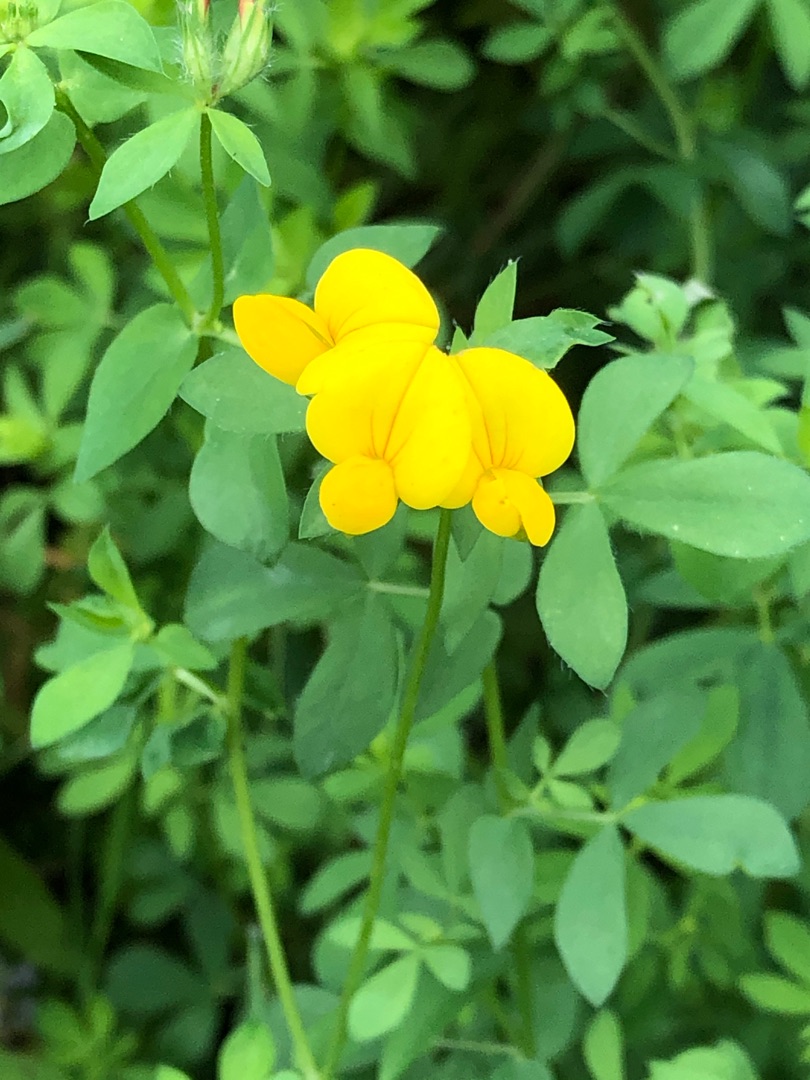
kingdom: Plantae
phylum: Tracheophyta
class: Magnoliopsida
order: Fabales
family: Fabaceae
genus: Lotus
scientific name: Lotus corniculatus
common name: Almindelig kællingetand
